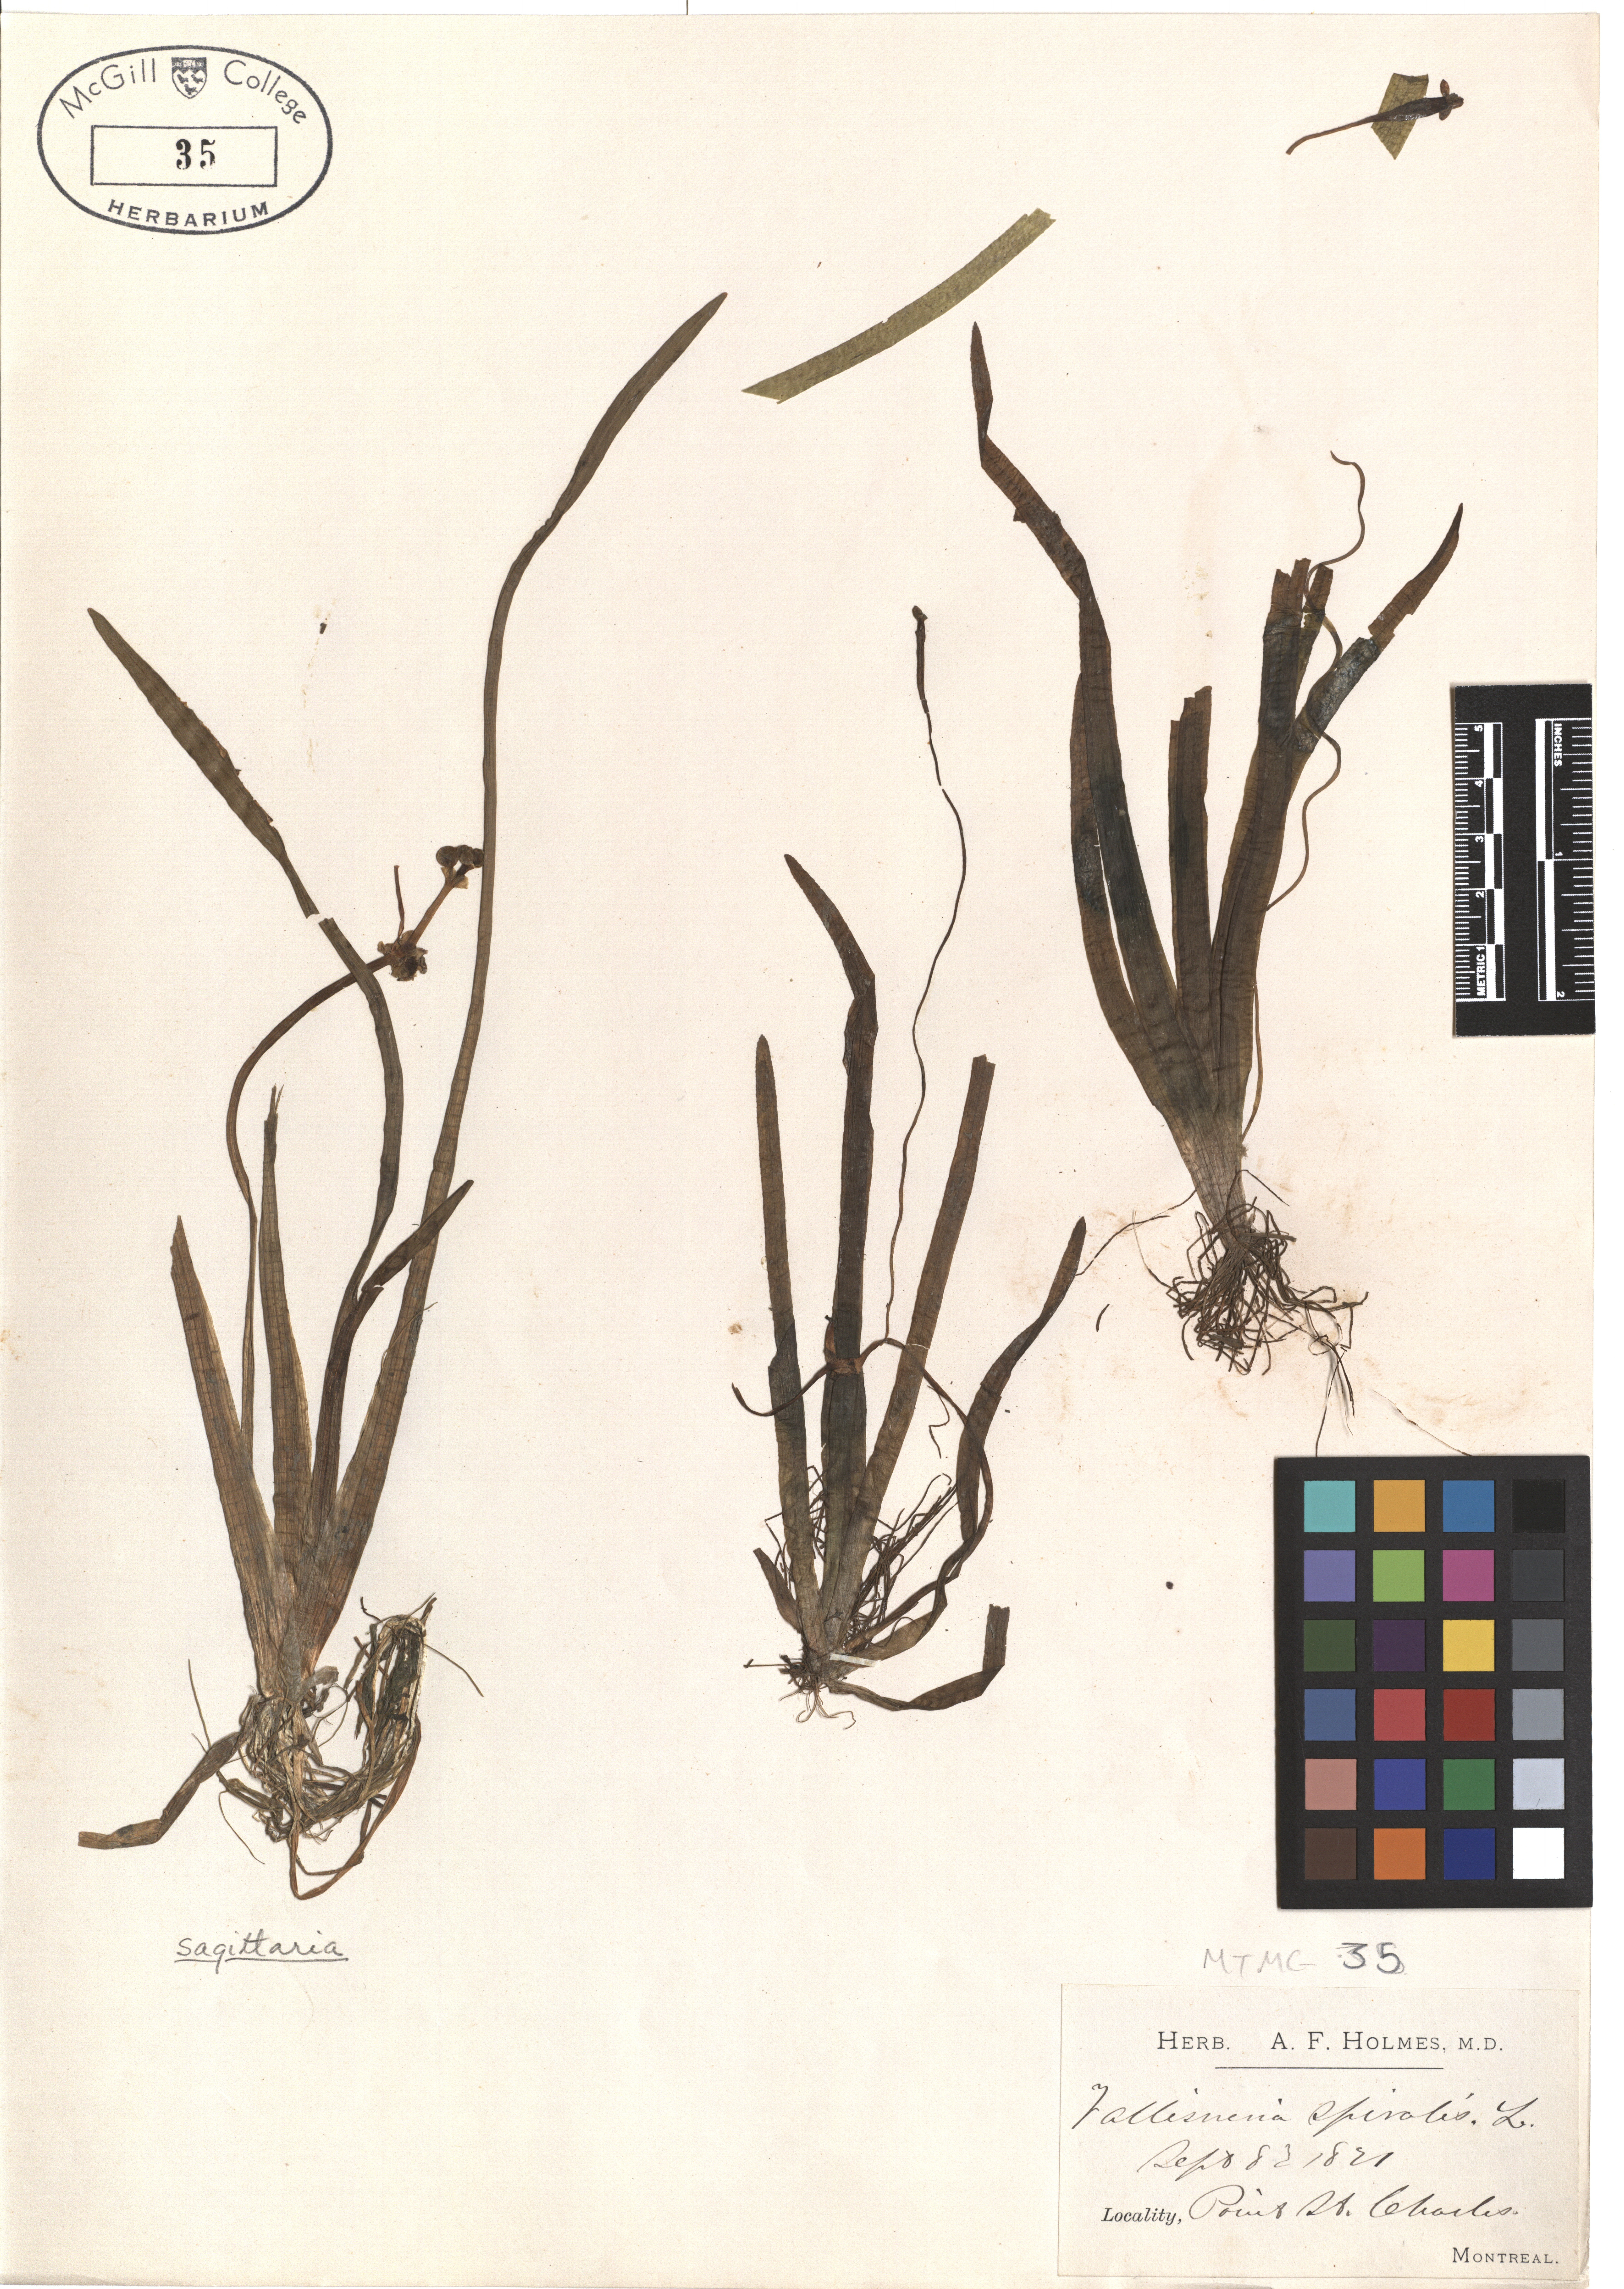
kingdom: Plantae
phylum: Tracheophyta
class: Liliopsida
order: Alismatales
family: Hydrocharitaceae
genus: Vallisneria
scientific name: Vallisneria americana
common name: American eelgrass
